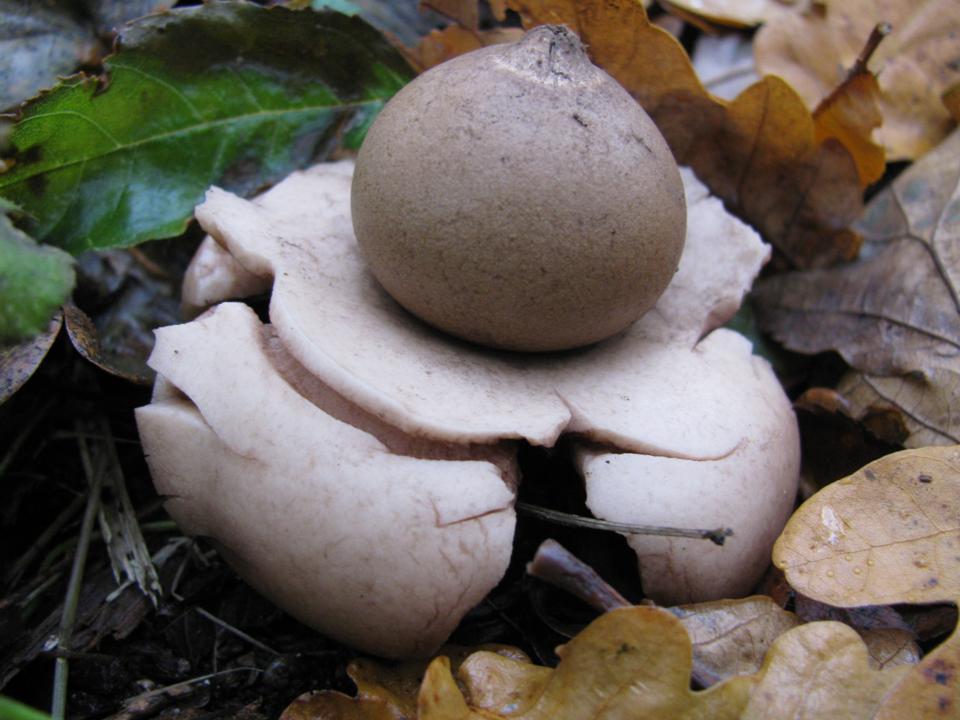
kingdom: Fungi
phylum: Basidiomycota
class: Agaricomycetes
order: Geastrales
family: Geastraceae
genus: Geastrum
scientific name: Geastrum michelianum
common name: kødet stjernebold
